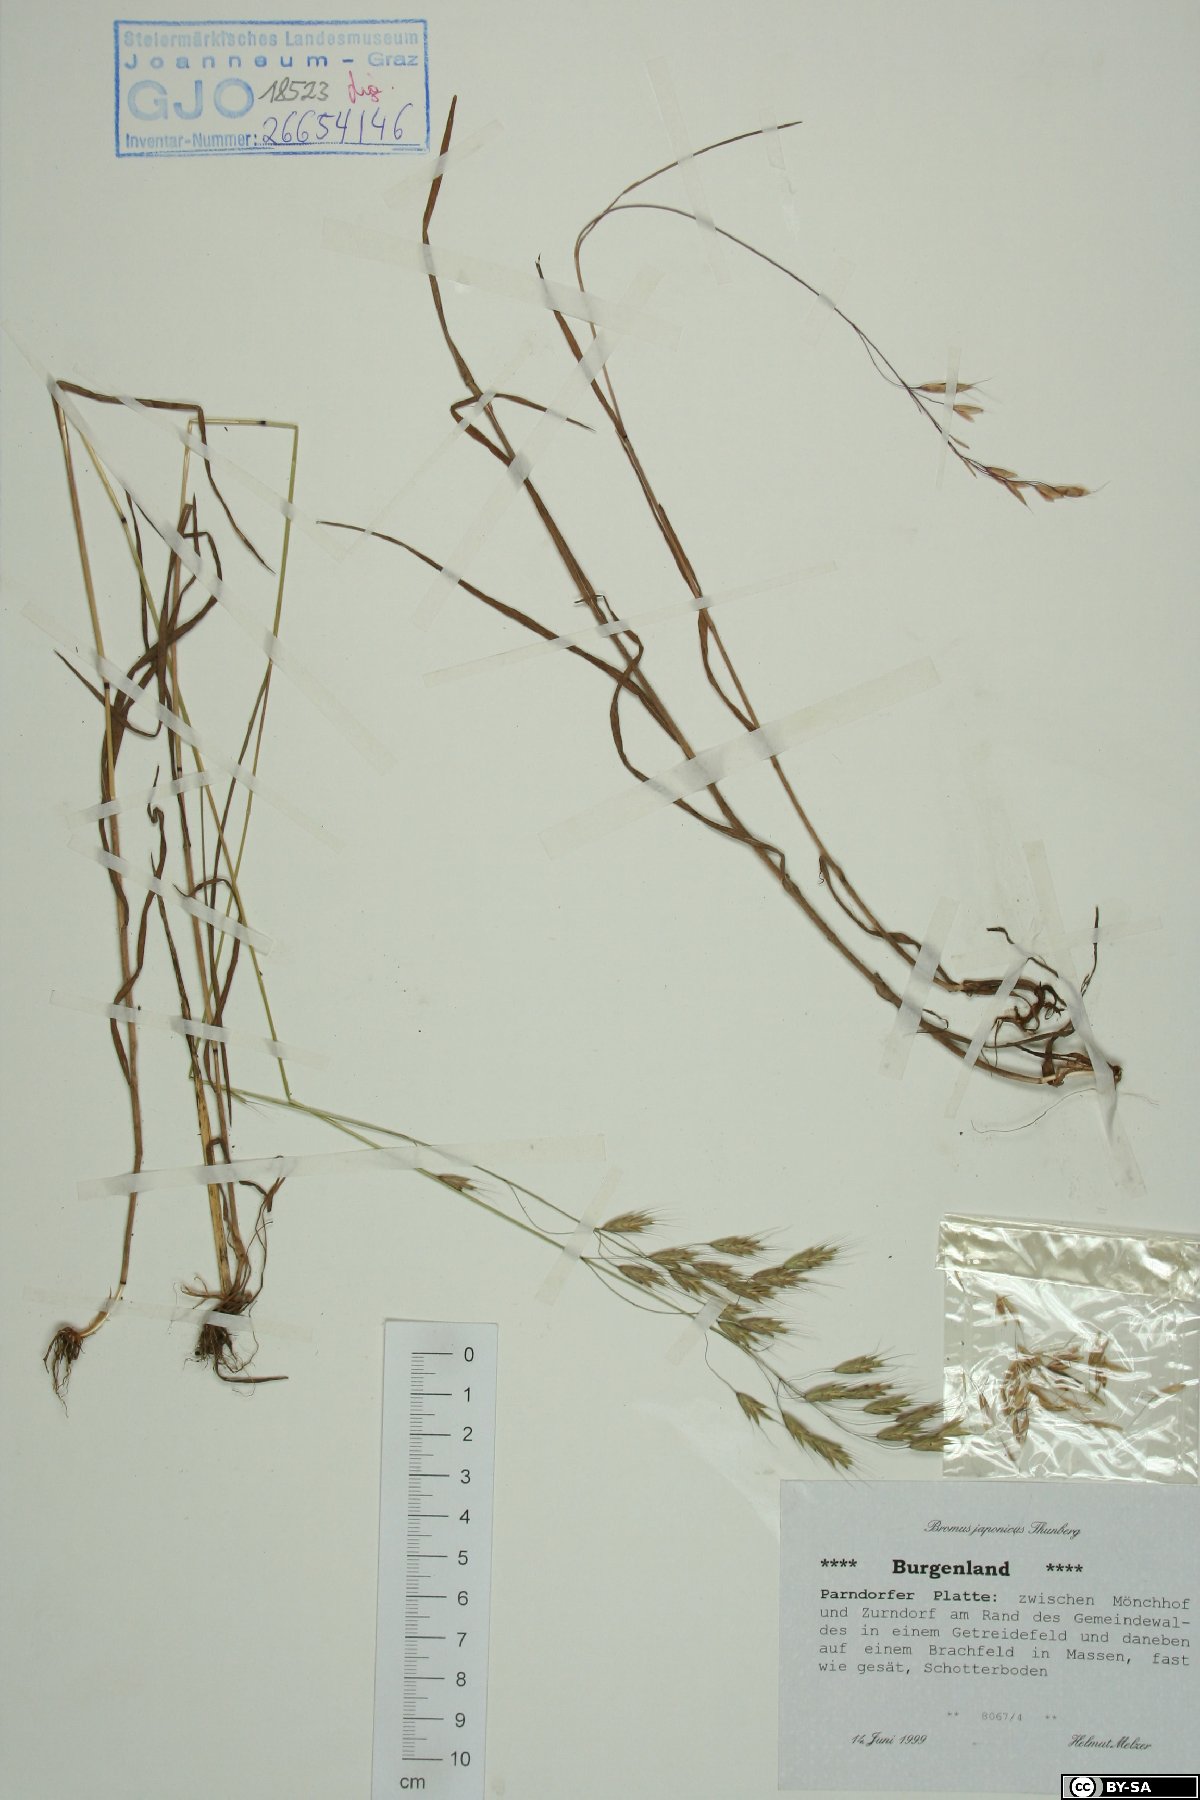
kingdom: Plantae
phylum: Tracheophyta
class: Liliopsida
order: Poales
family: Poaceae
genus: Bromus
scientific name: Bromus japonicus
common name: Japanese brome
